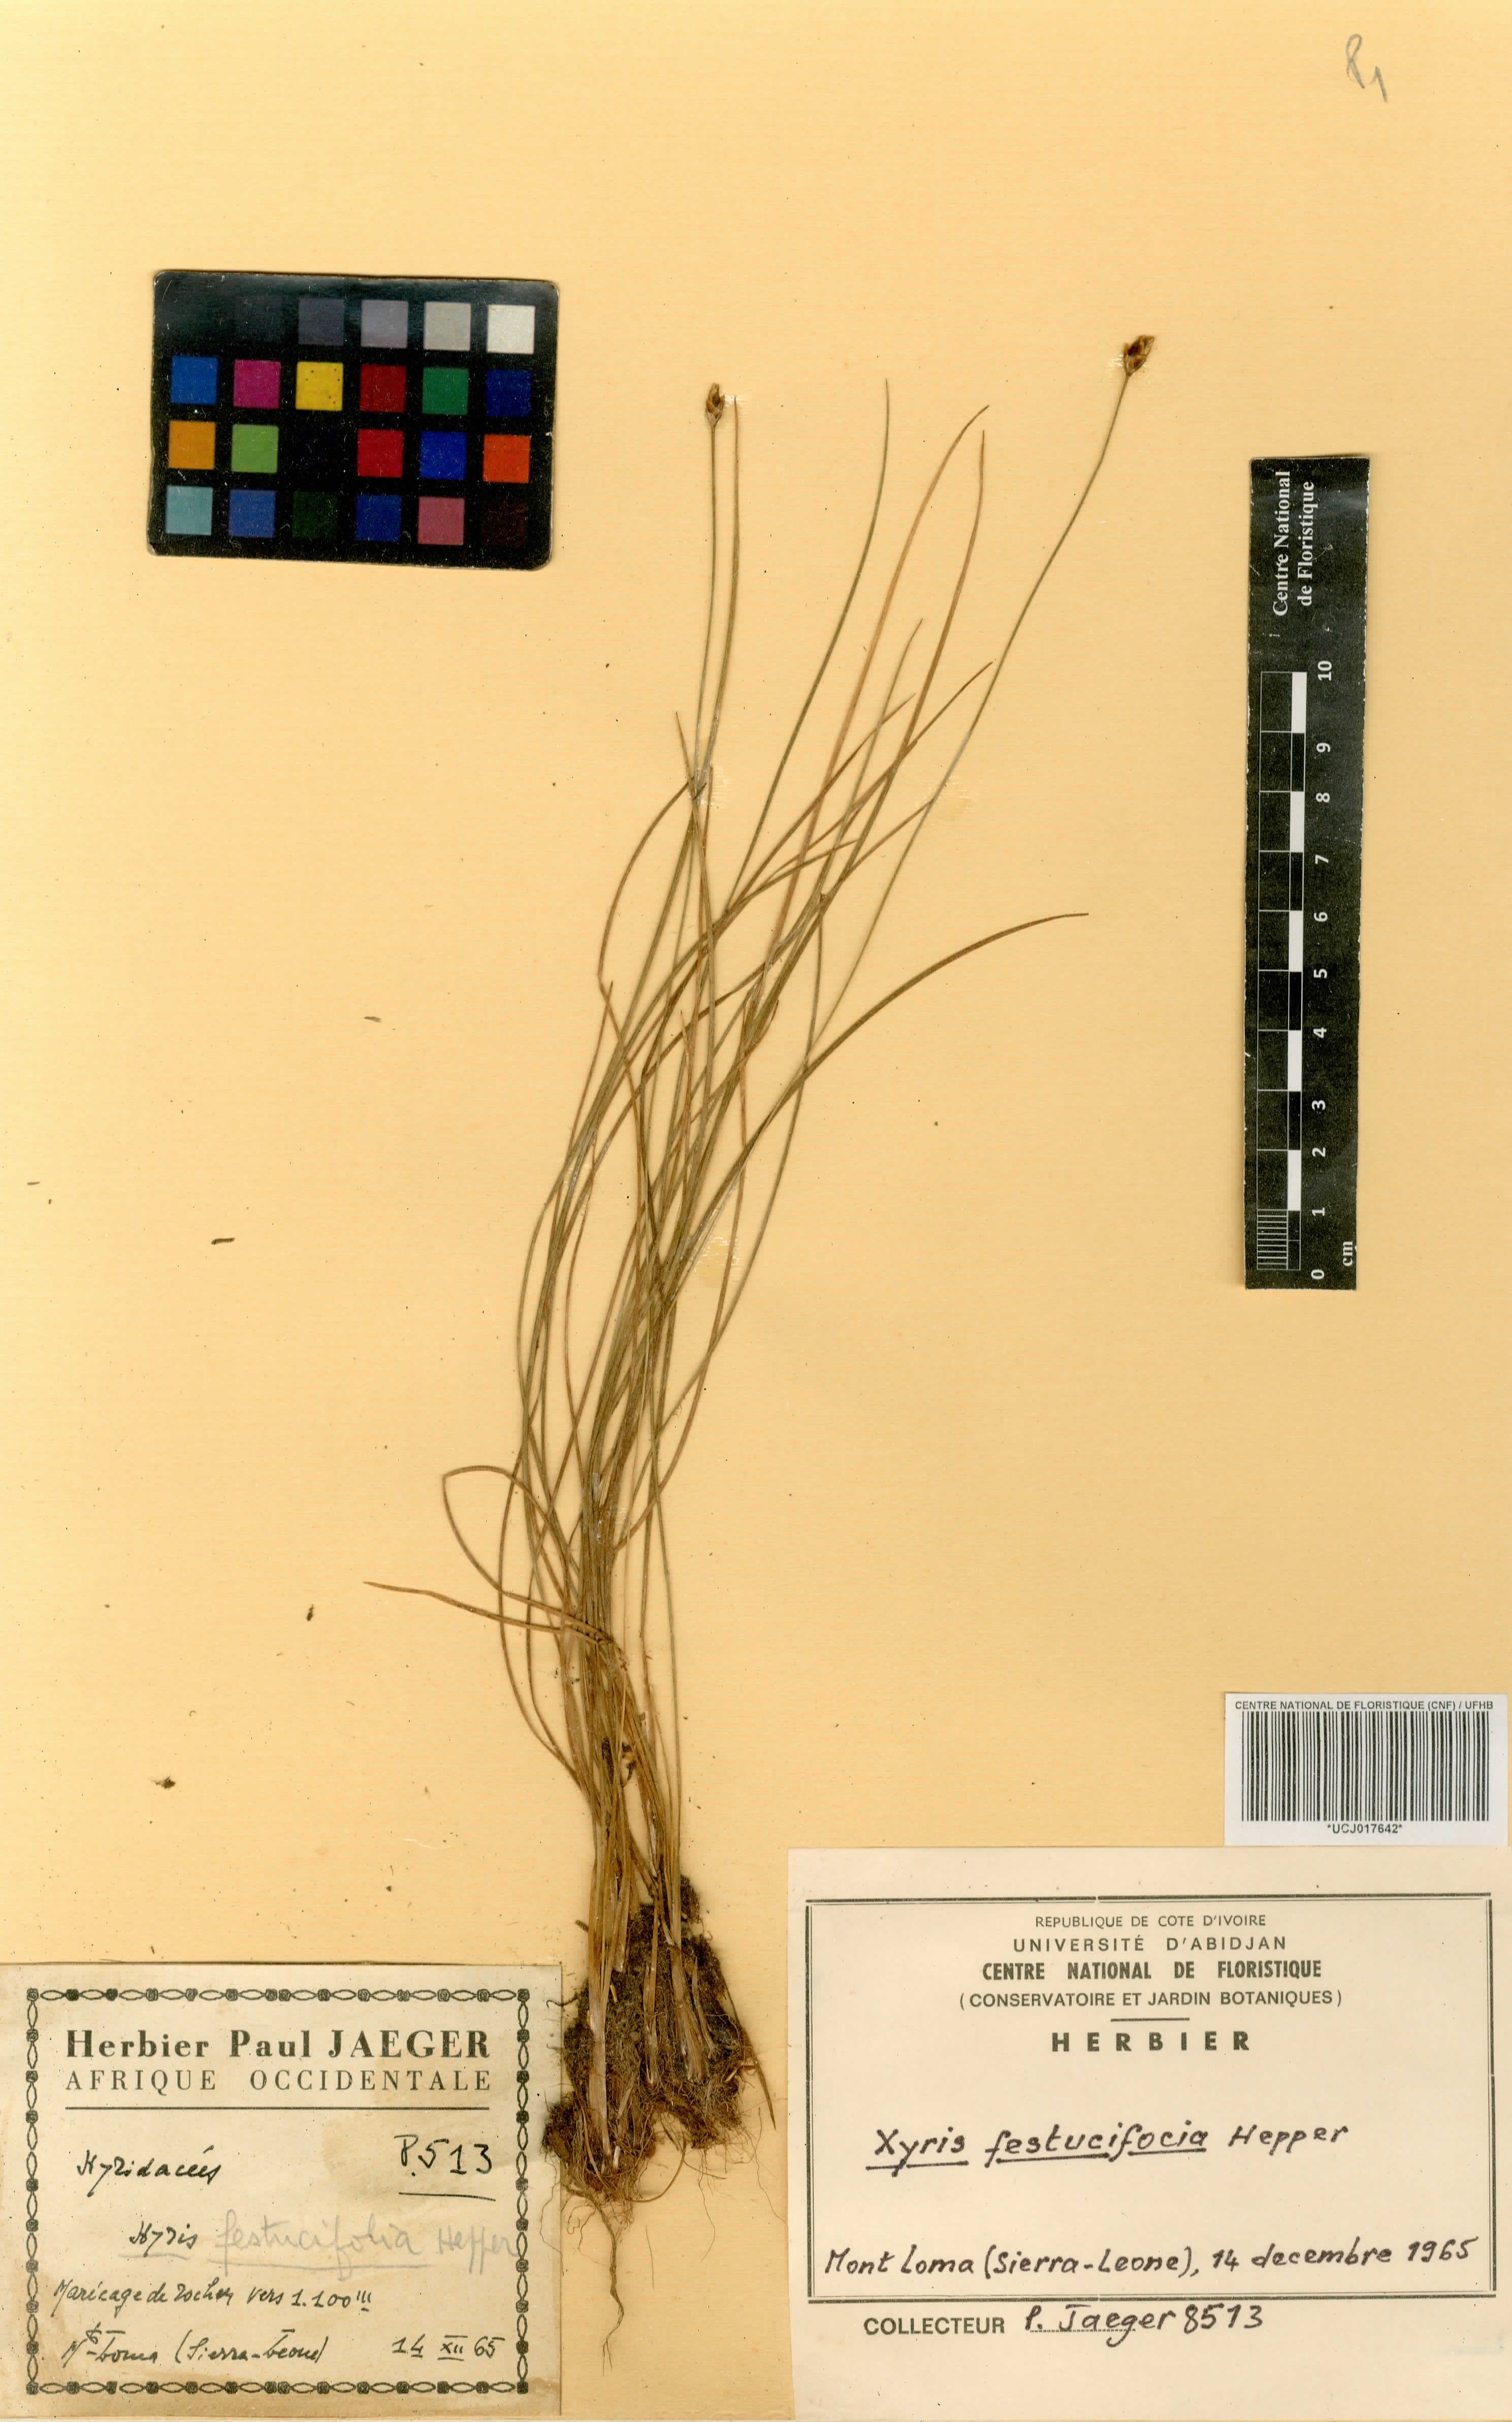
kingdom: Plantae
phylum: Tracheophyta
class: Liliopsida
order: Poales
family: Xyridaceae
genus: Xyris
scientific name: Xyris festucifolia
